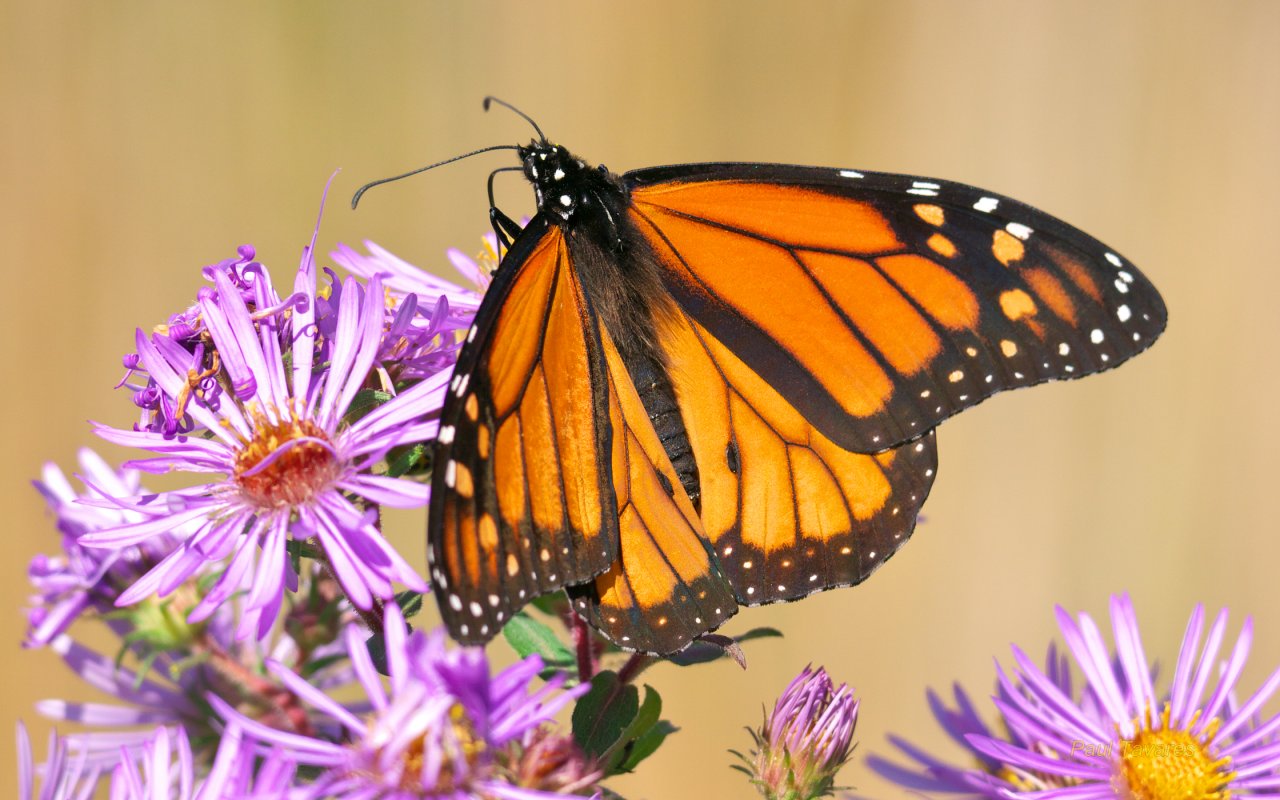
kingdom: Animalia
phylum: Arthropoda
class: Insecta
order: Lepidoptera
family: Nymphalidae
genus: Danaus
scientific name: Danaus plexippus
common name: Monarch
